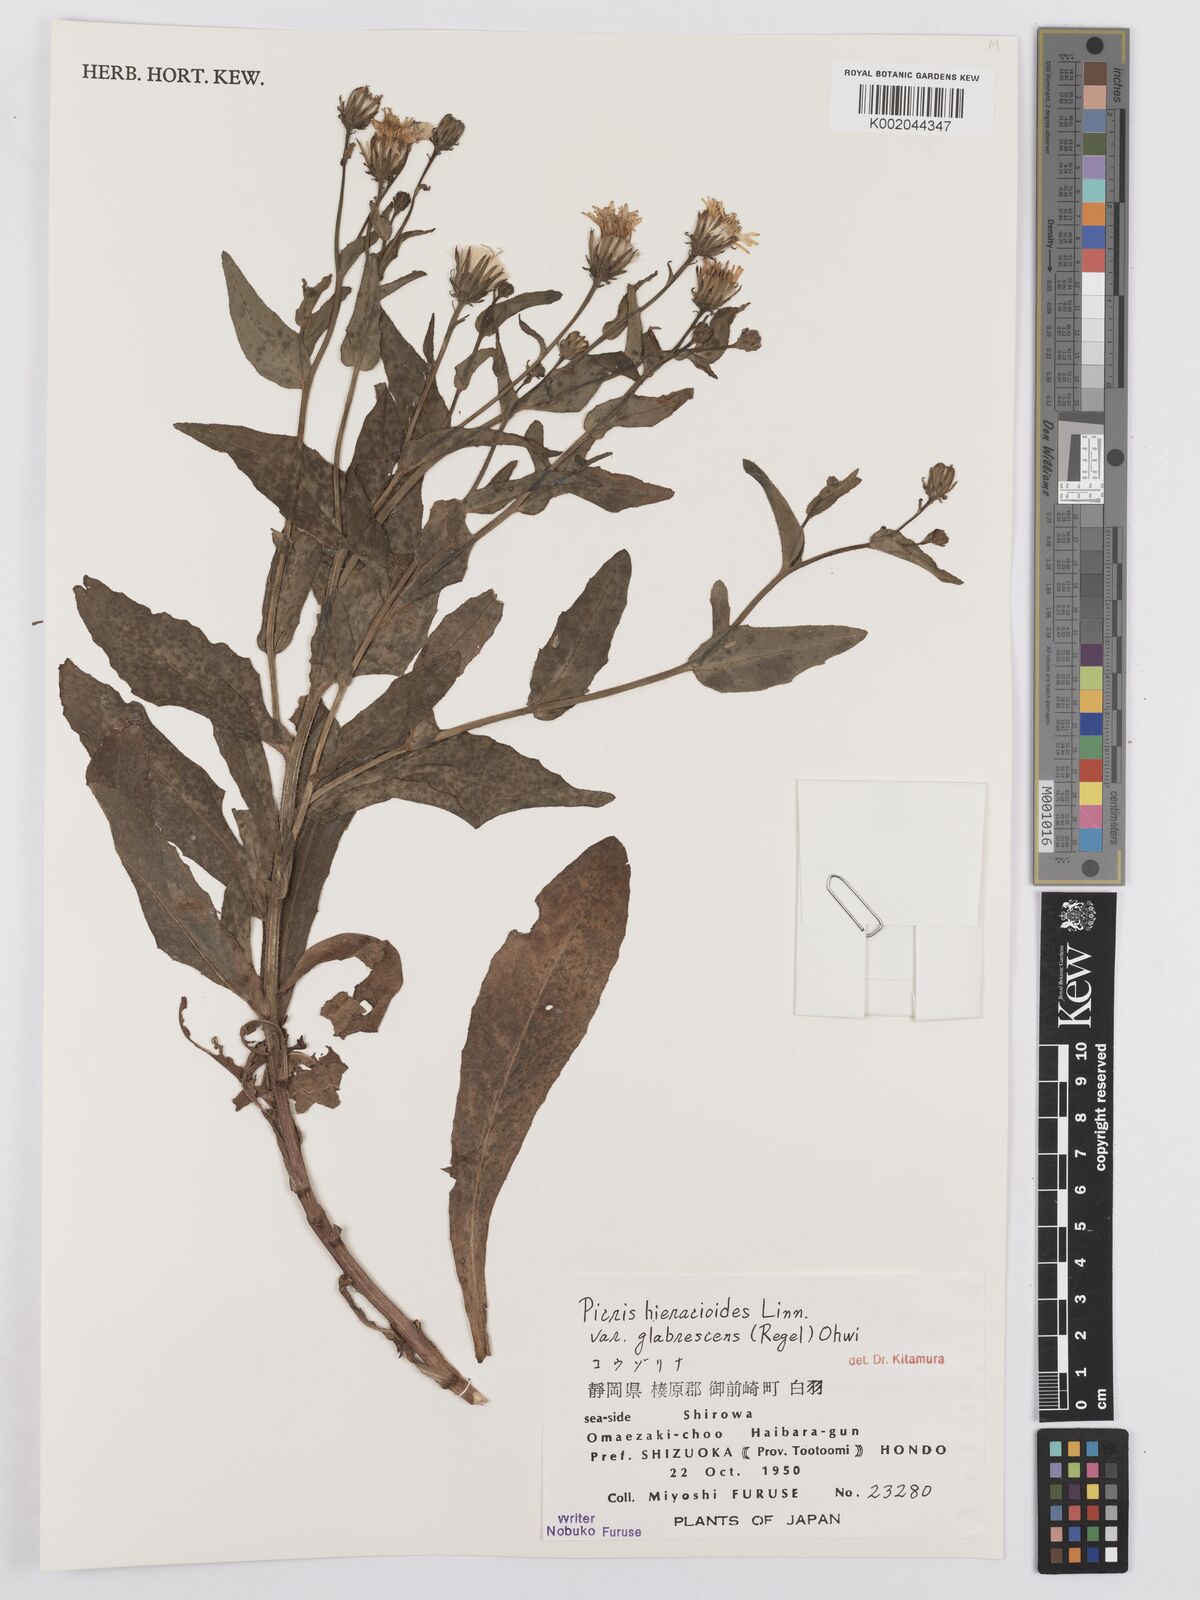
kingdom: Plantae
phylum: Tracheophyta
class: Magnoliopsida
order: Asterales
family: Asteraceae
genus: Picris
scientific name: Picris hieracioides
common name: Hawkweed oxtongue
